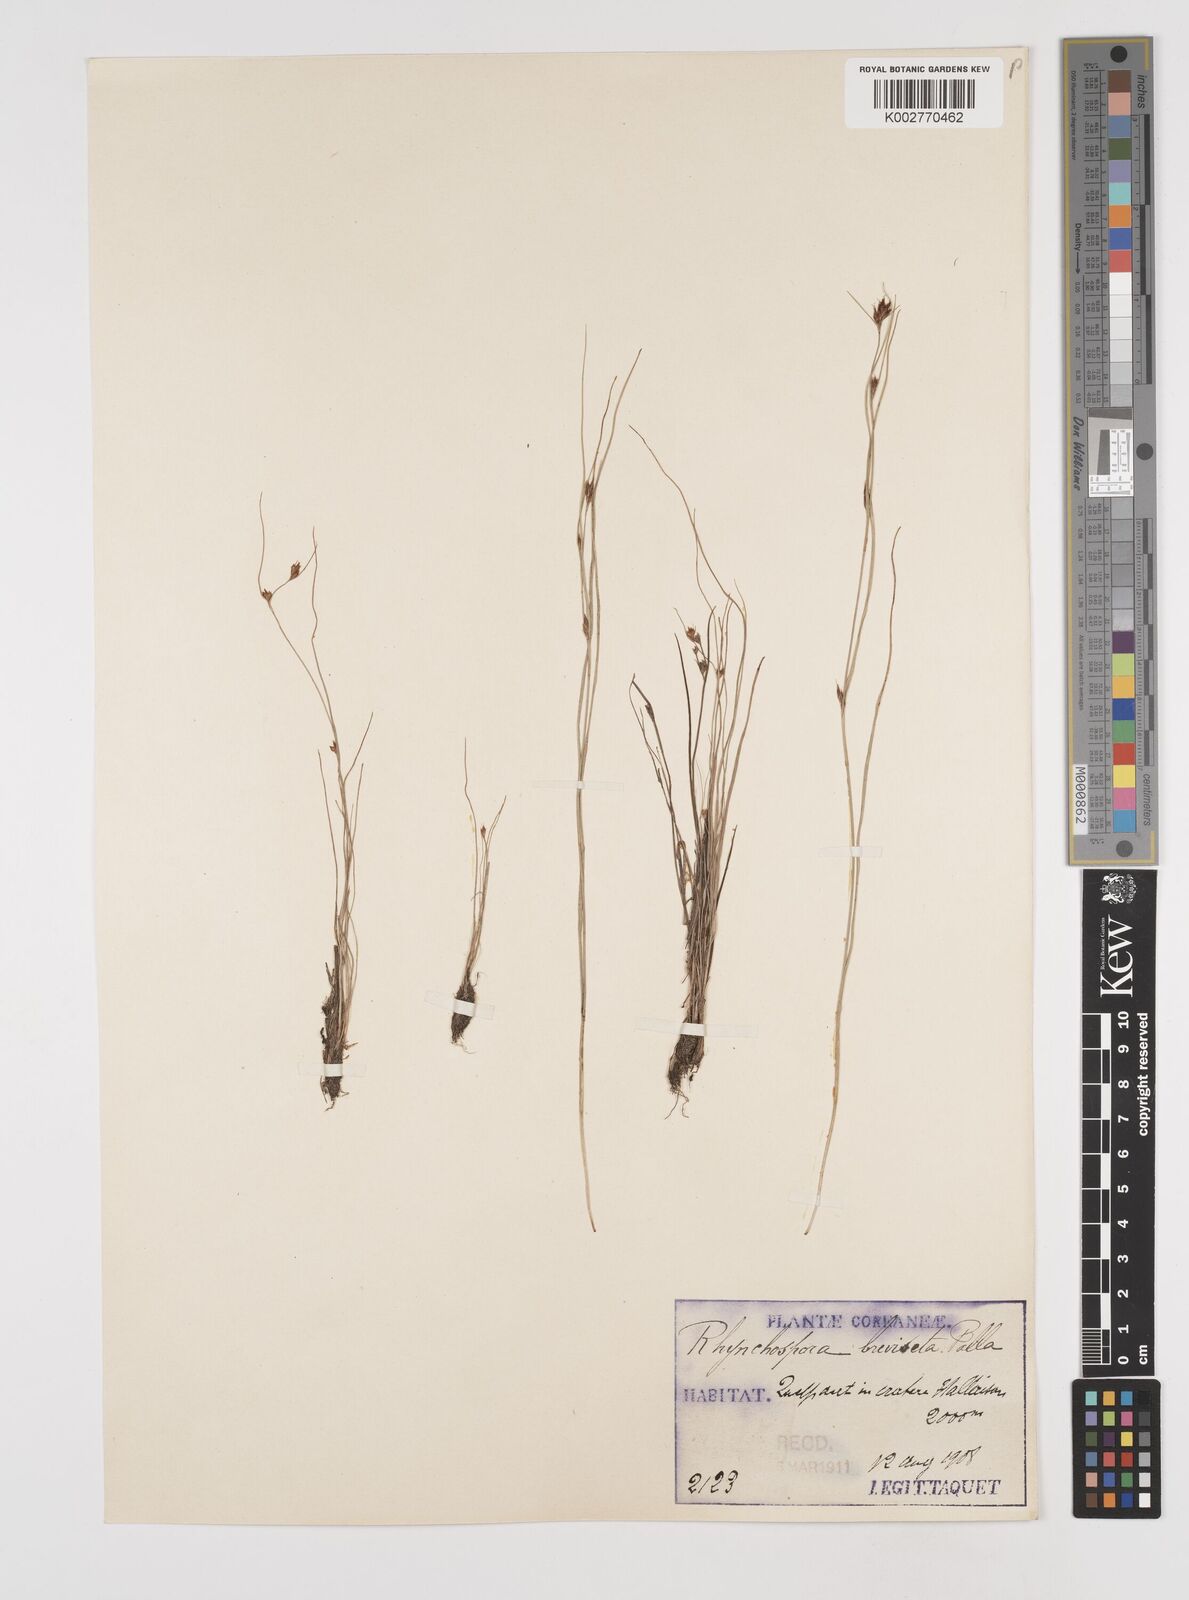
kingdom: Plantae
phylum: Tracheophyta
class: Liliopsida
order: Poales
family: Cyperaceae
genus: Rhynchospora
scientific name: Rhynchospora faberi
